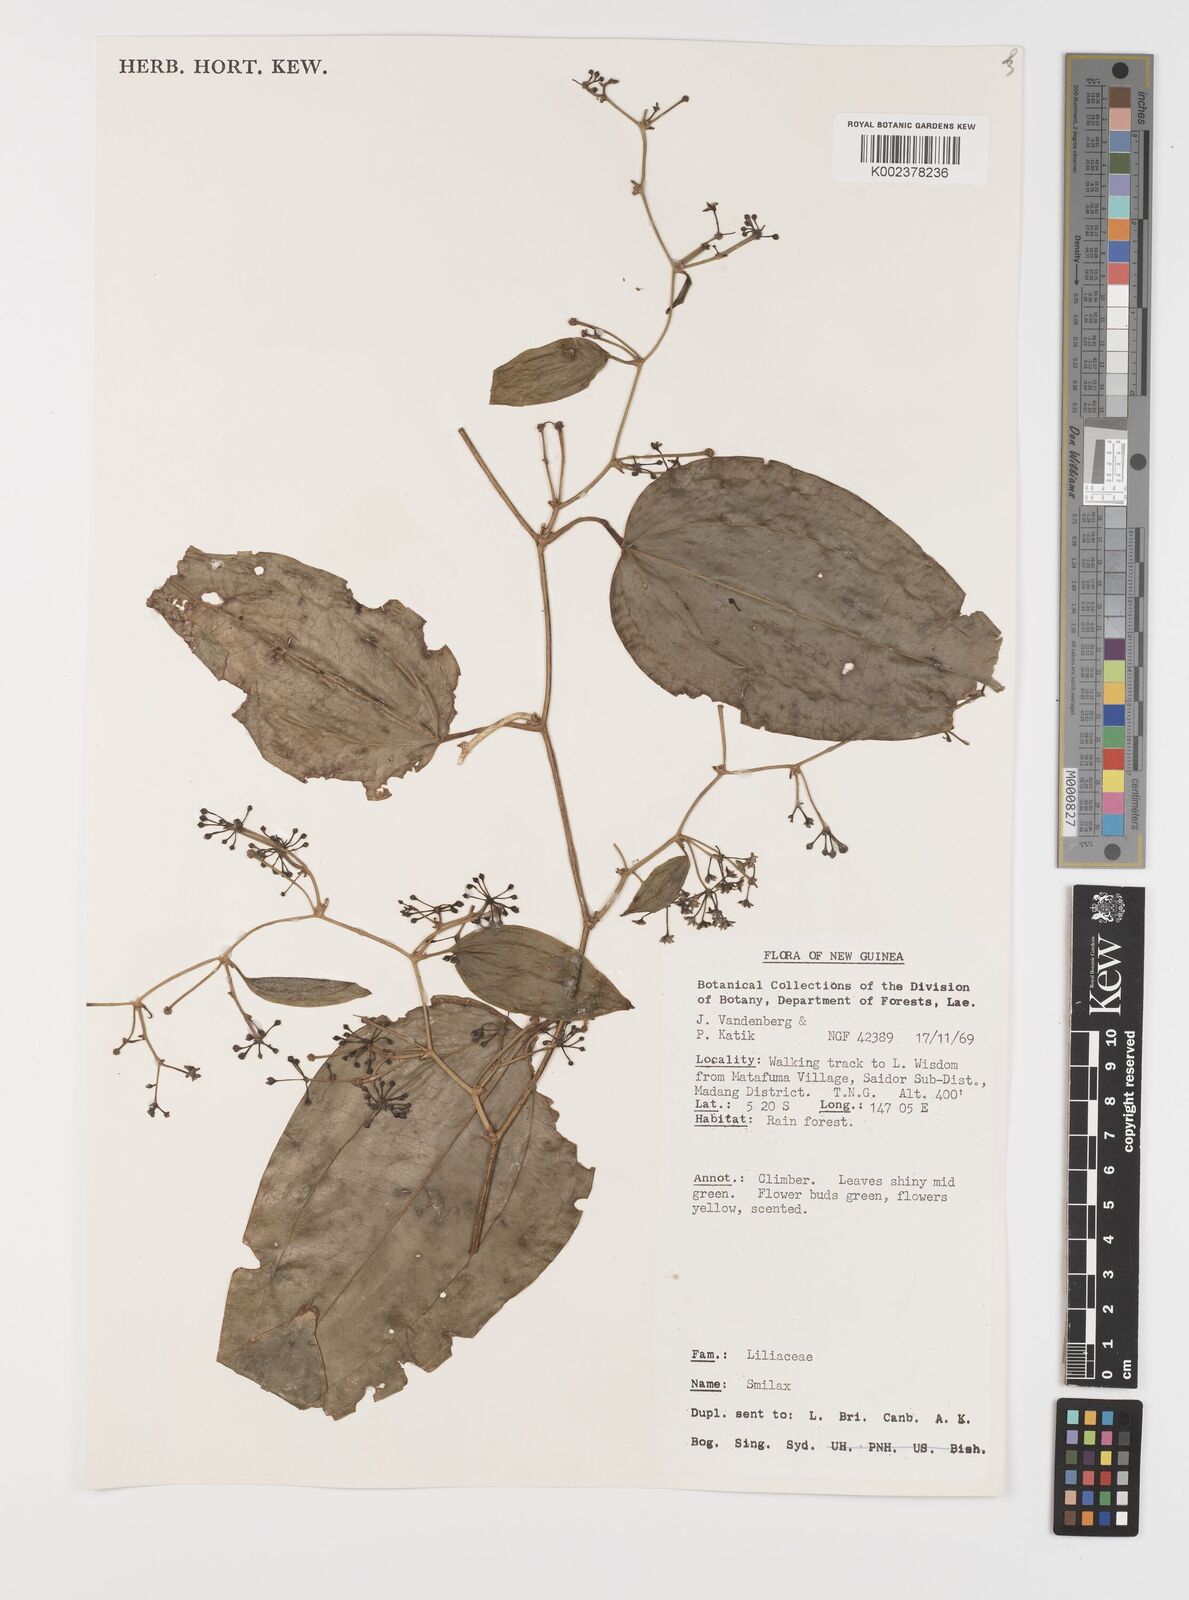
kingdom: Plantae
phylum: Tracheophyta
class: Liliopsida
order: Liliales
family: Smilacaceae
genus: Smilax
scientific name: Smilax
